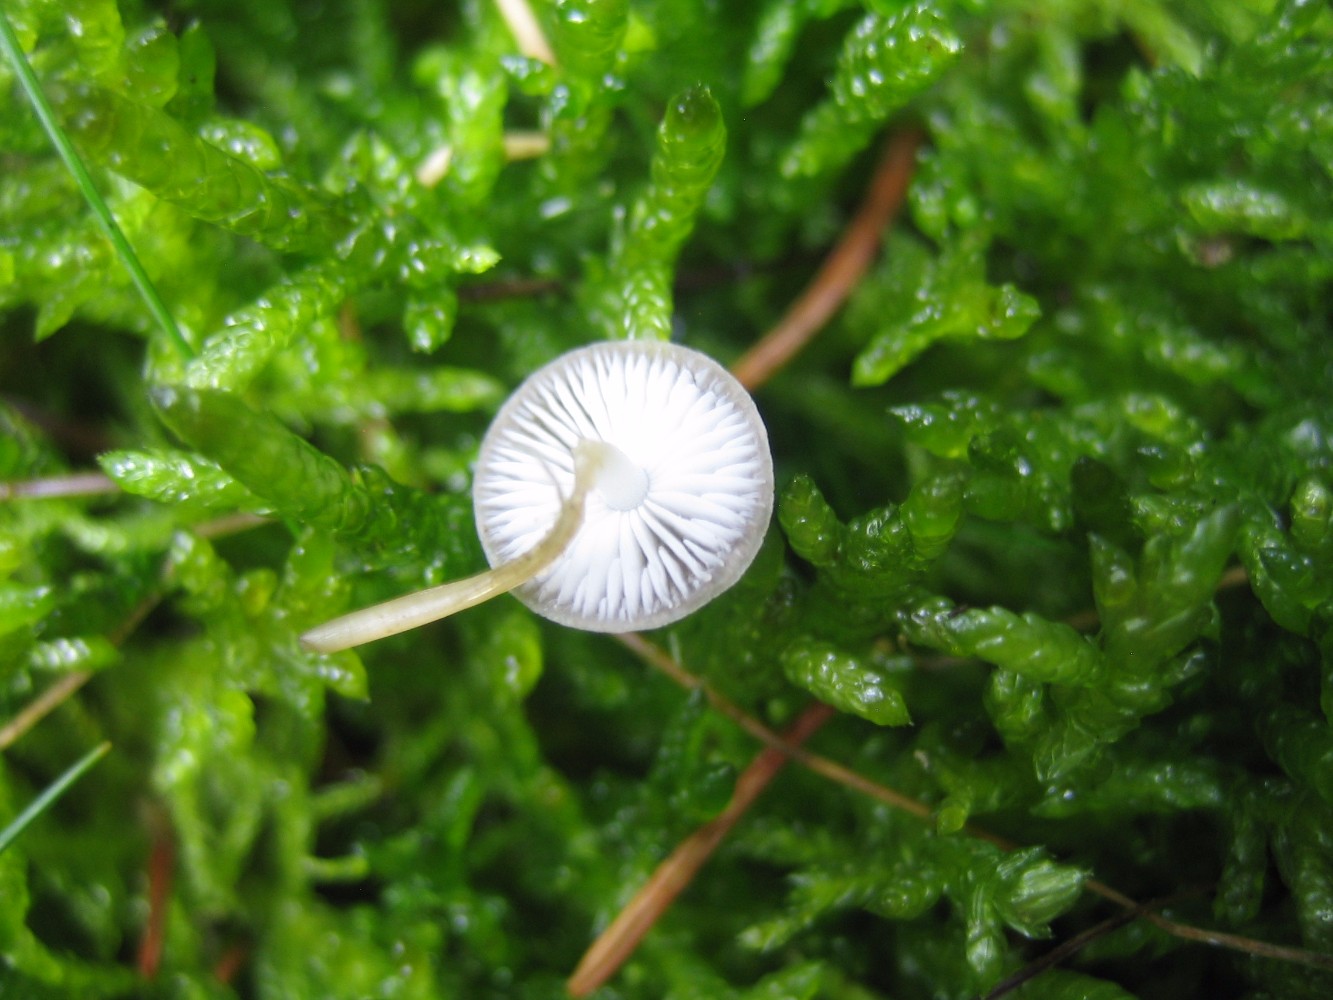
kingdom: Fungi
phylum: Basidiomycota
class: Agaricomycetes
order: Agaricales
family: Physalacriaceae
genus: Strobilurus
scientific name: Strobilurus esculentus
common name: gran-koglehat
